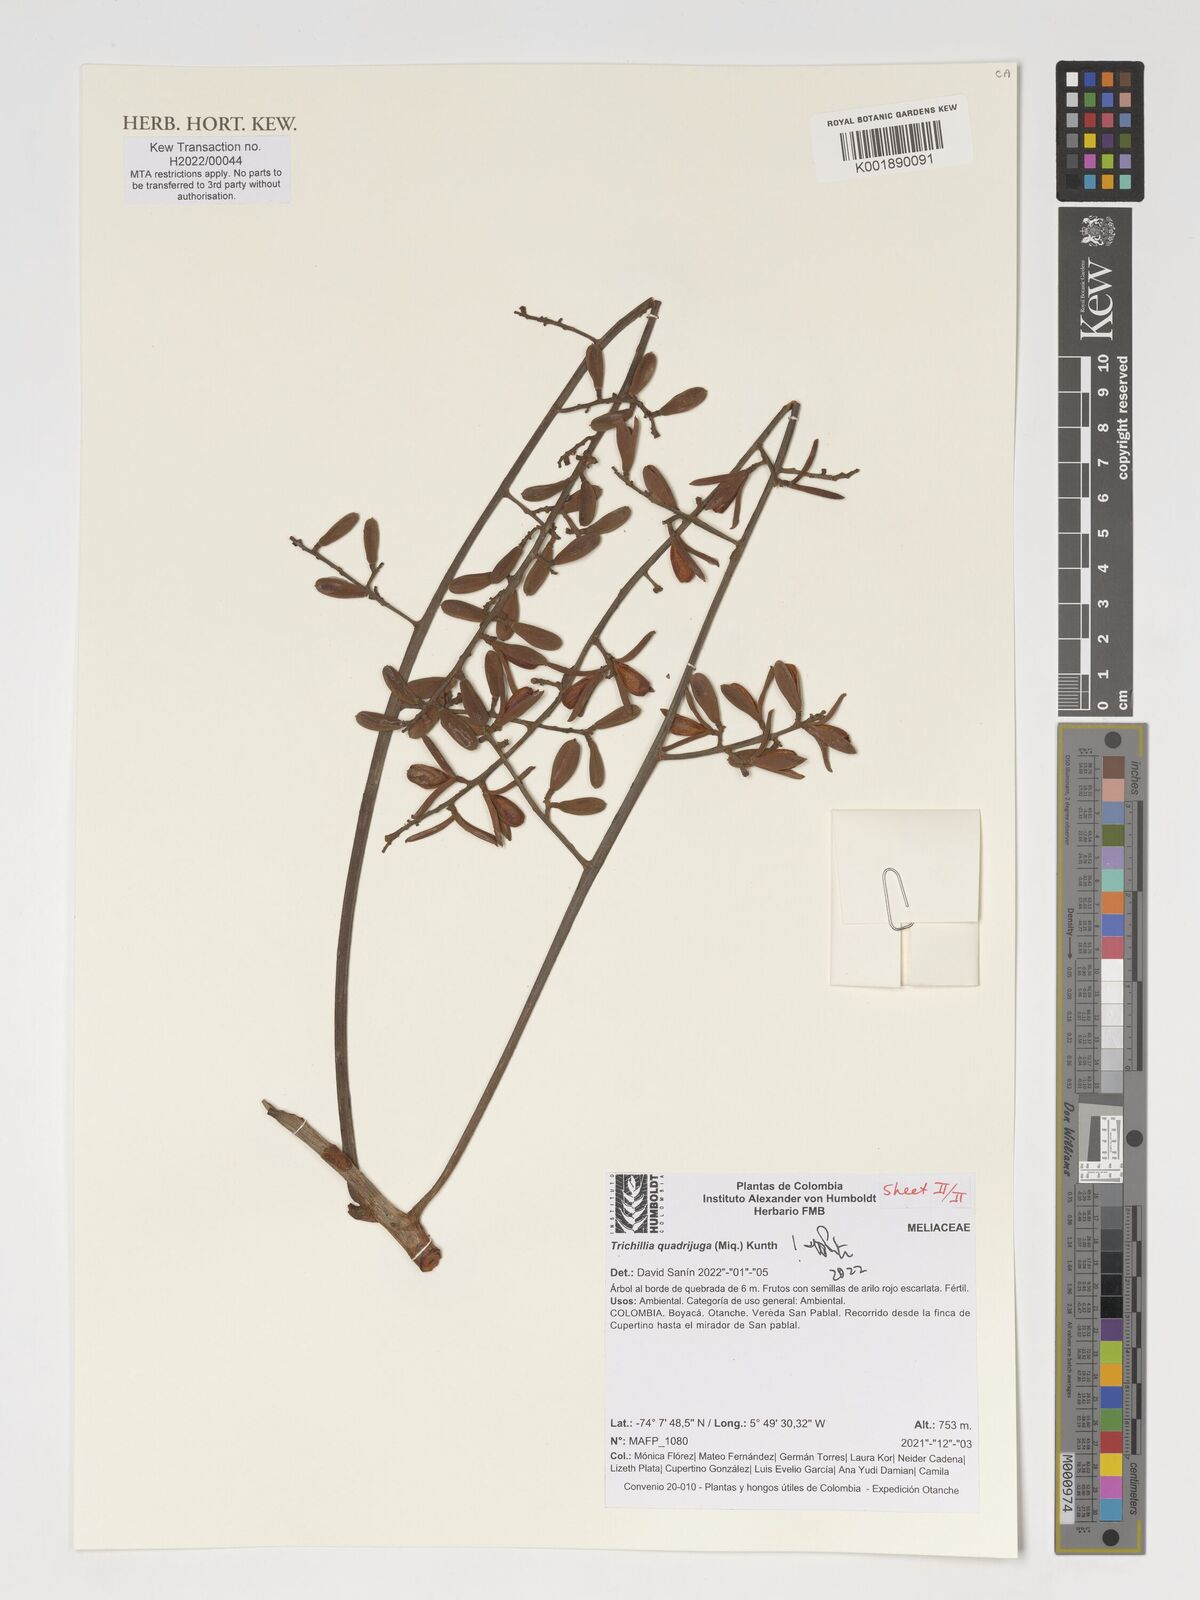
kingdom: Plantae
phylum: Tracheophyta
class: Magnoliopsida
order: Sapindales
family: Meliaceae
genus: Trichilia
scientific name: Trichilia quadrijuga
